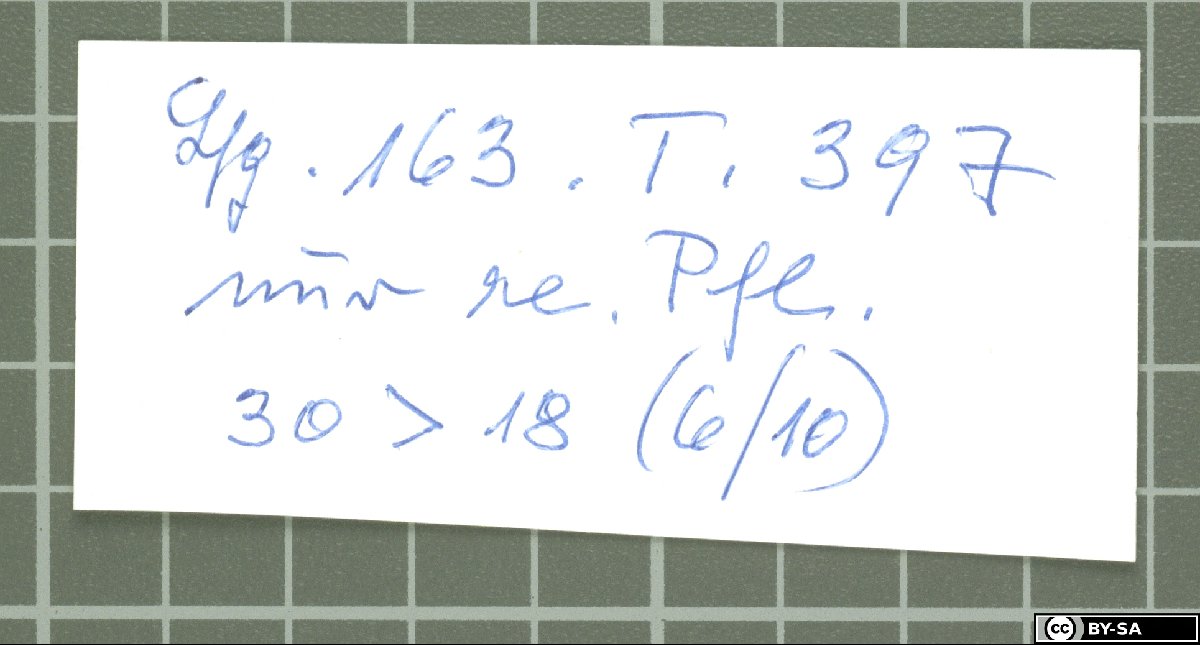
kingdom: Plantae
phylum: Tracheophyta
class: Magnoliopsida
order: Caryophyllales
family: Caryophyllaceae
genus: Dianthus
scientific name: Dianthus orientalis
